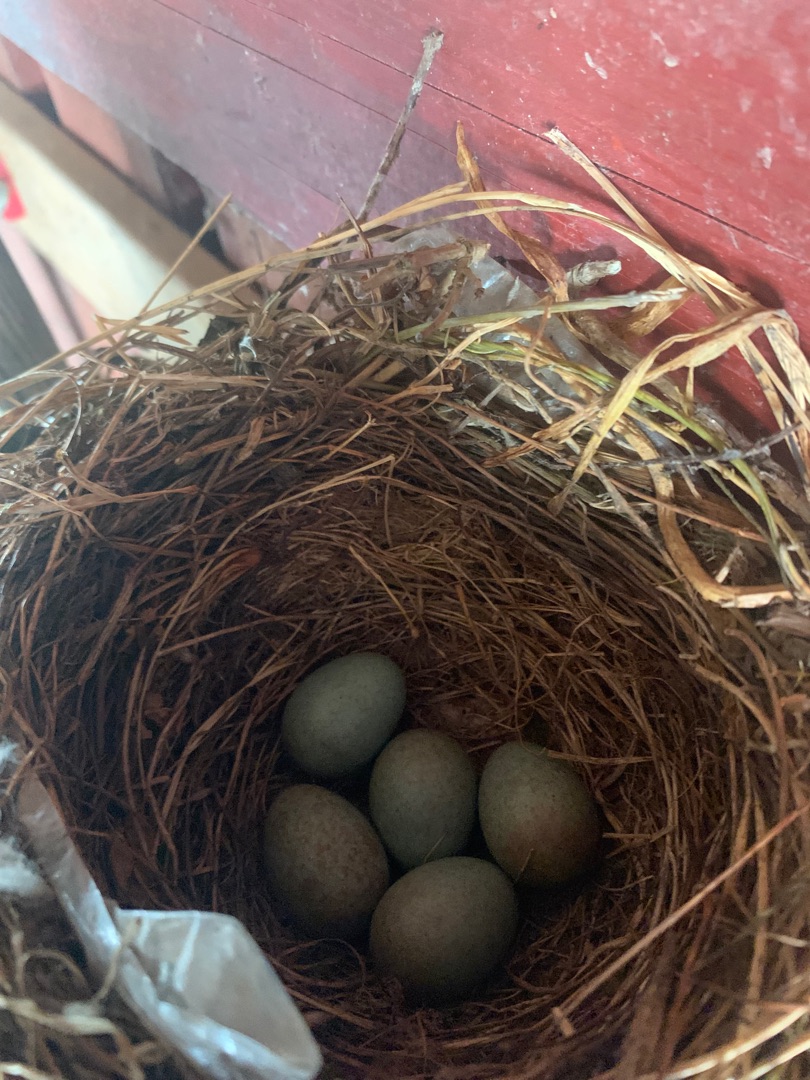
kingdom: Animalia
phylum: Chordata
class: Aves
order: Passeriformes
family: Turdidae
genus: Turdus
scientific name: Turdus merula
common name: Solsort
